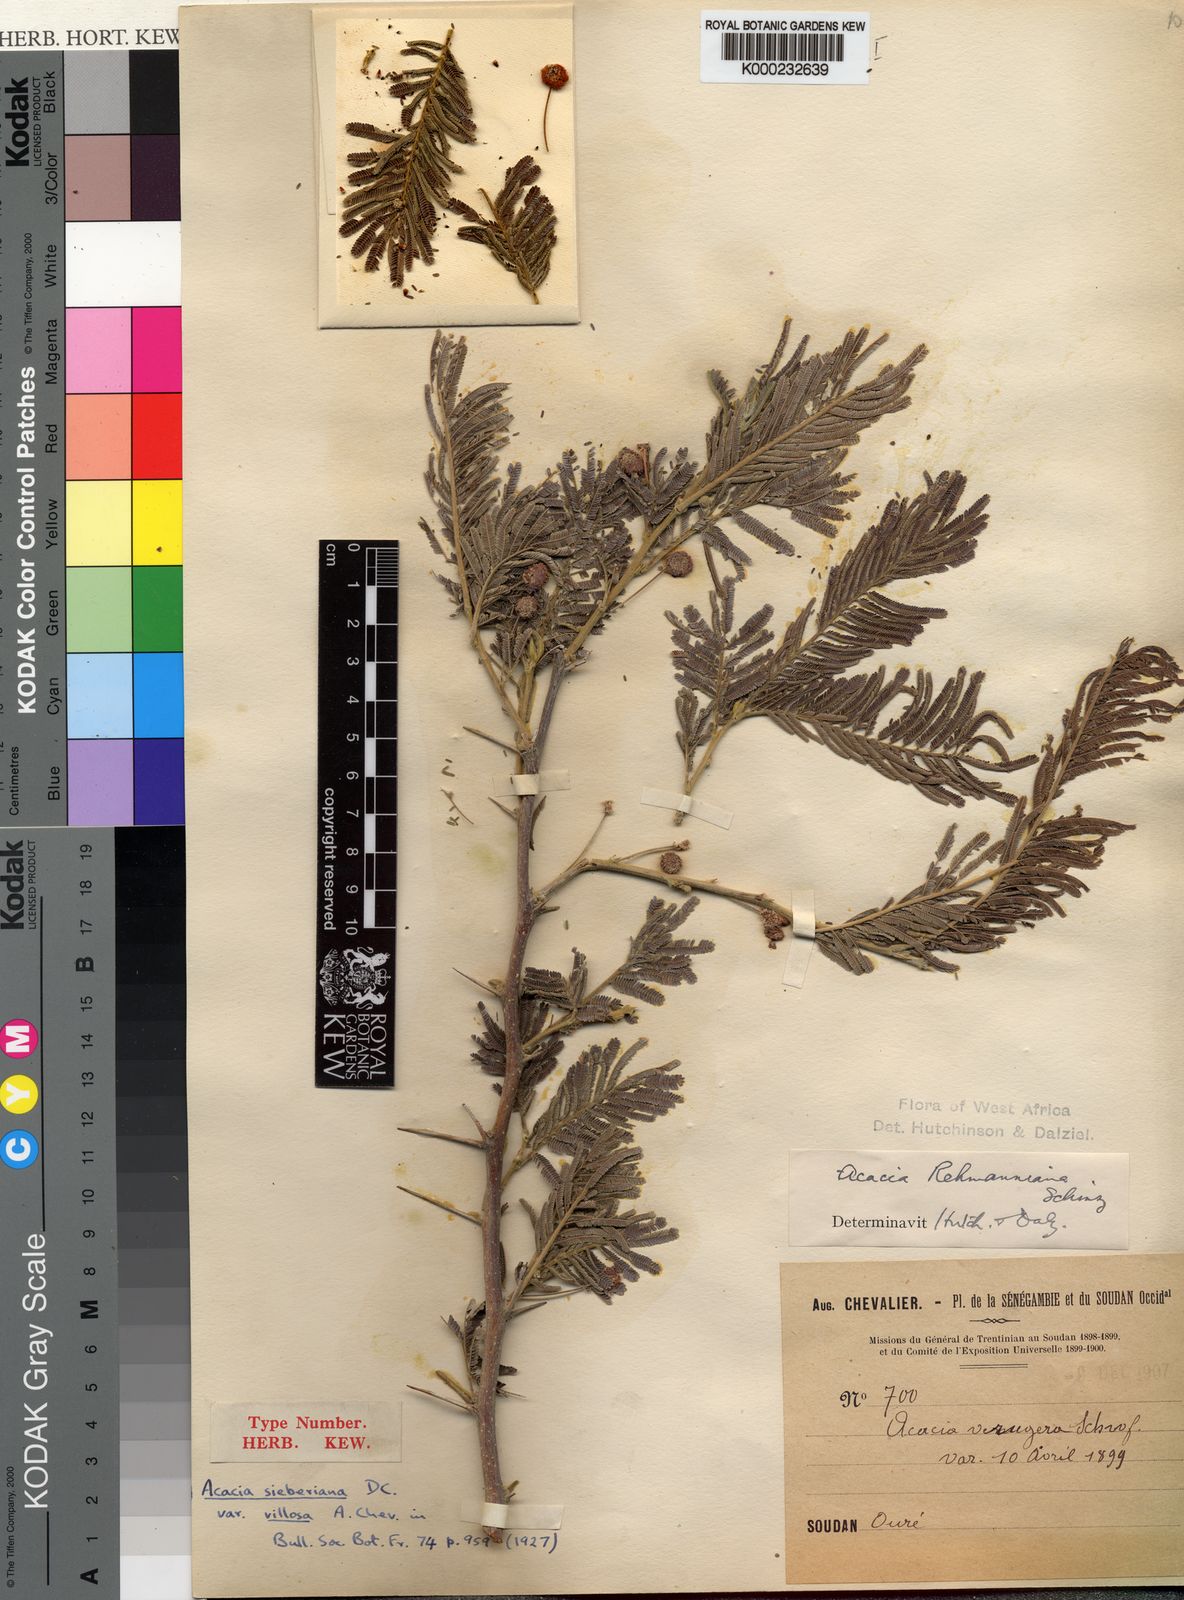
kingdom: Plantae
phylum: Tracheophyta
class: Magnoliopsida
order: Fabales
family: Fabaceae
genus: Vachellia
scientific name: Vachellia sieberiana
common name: Flat-topped thorn
